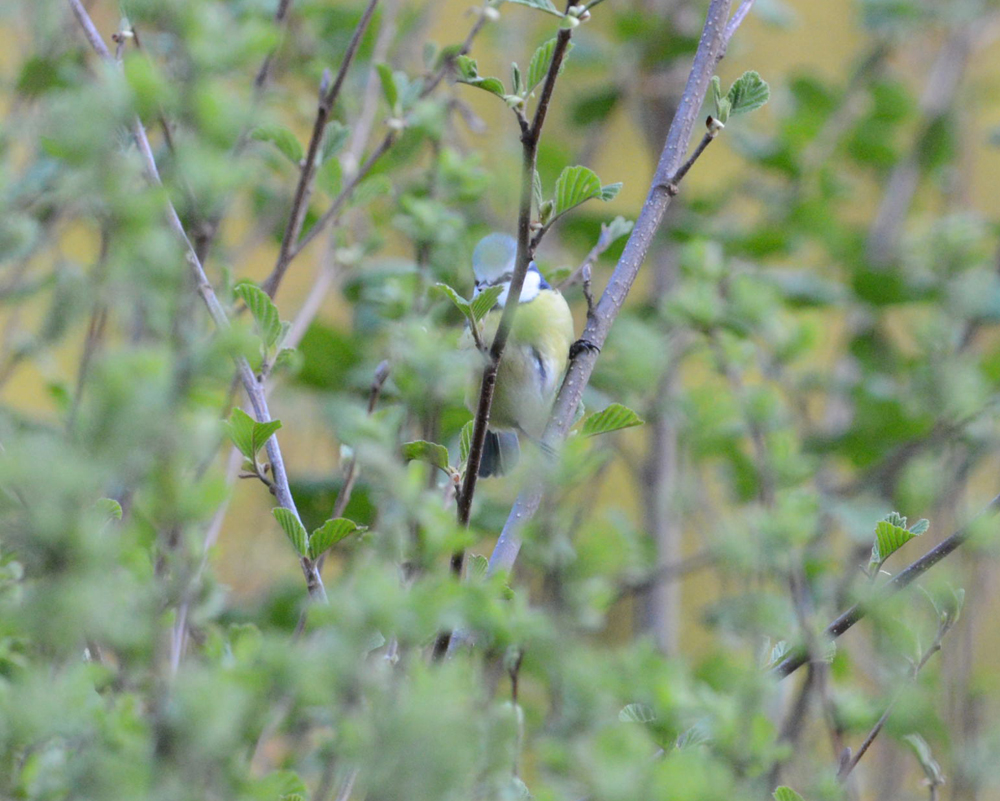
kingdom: Animalia
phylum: Chordata
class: Aves
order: Passeriformes
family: Paridae
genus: Cyanistes
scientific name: Cyanistes caeruleus
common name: Eurasian blue tit
